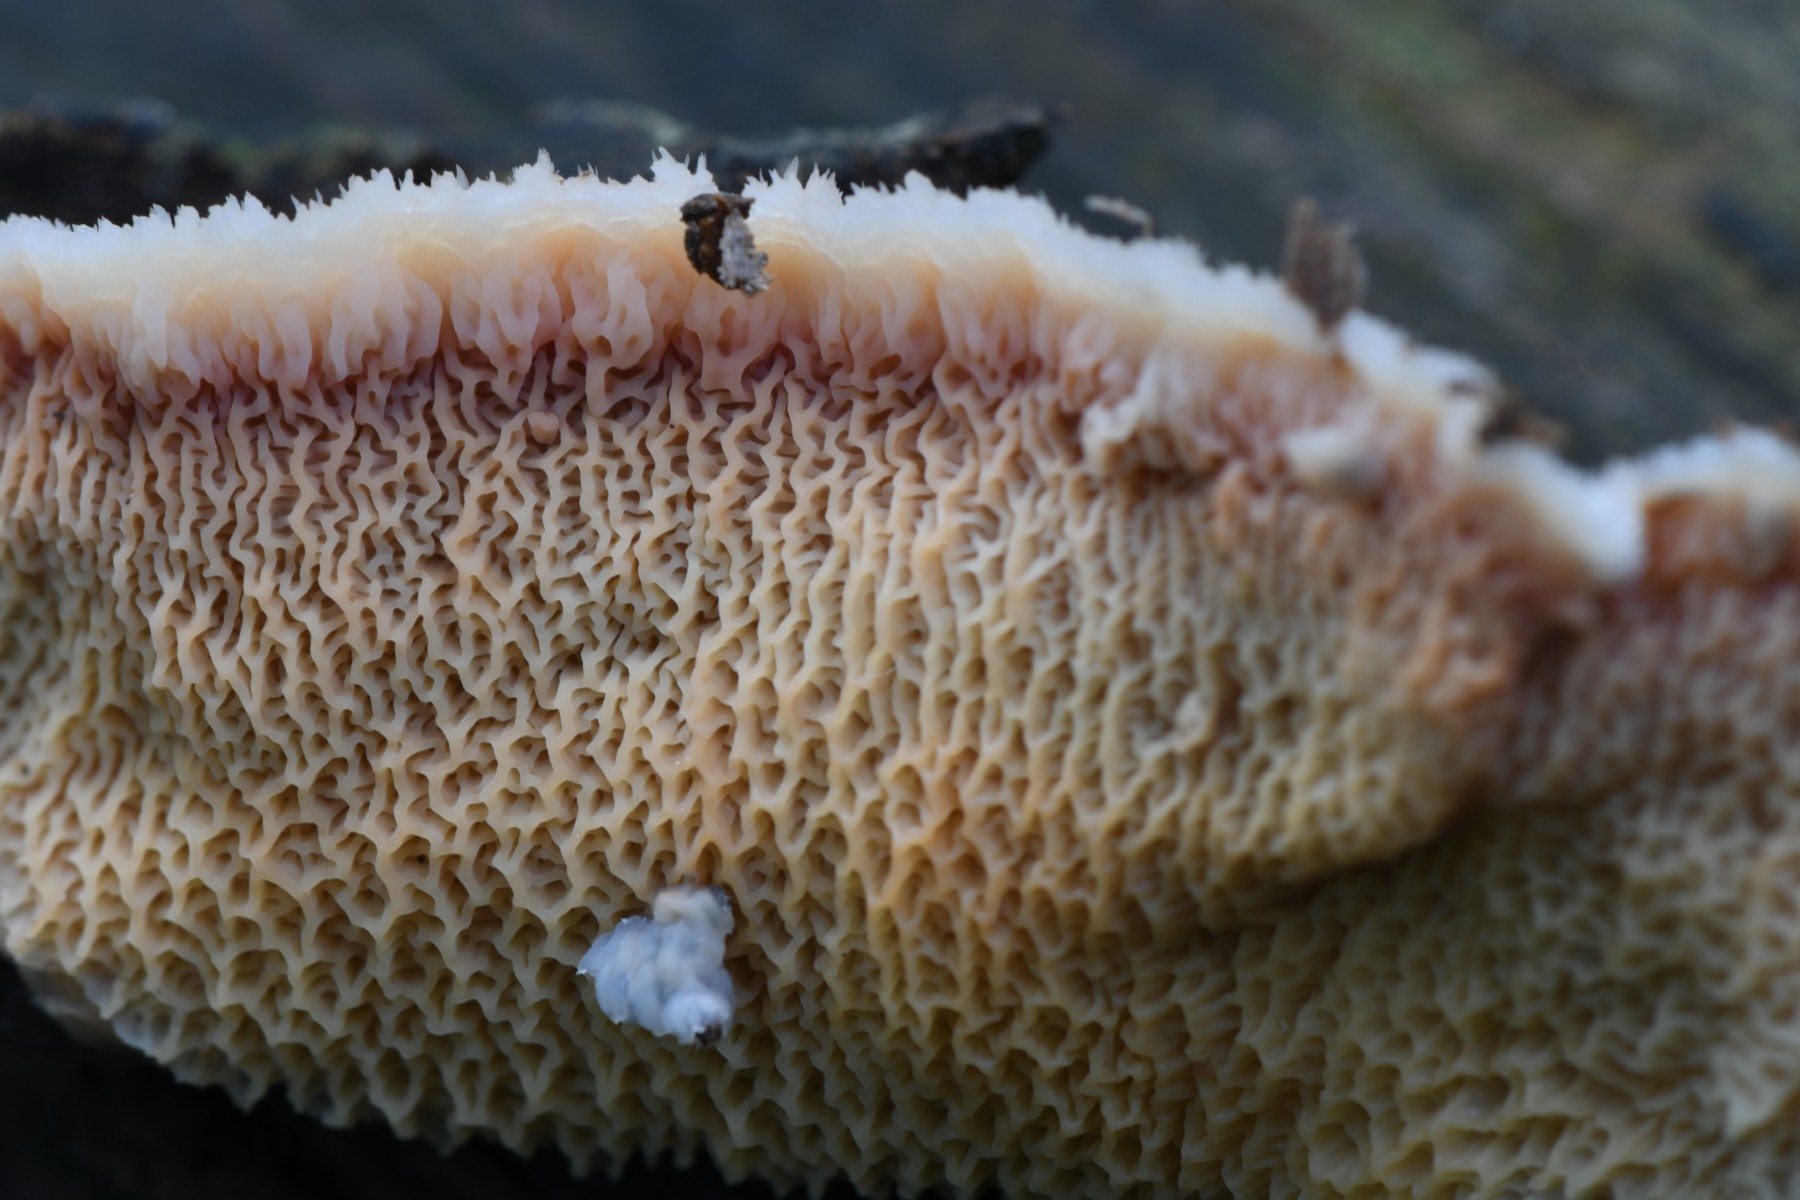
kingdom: Fungi
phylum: Basidiomycota
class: Agaricomycetes
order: Polyporales
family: Meruliaceae
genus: Phlebia
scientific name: Phlebia tremellosa
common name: bævrende åresvamp
